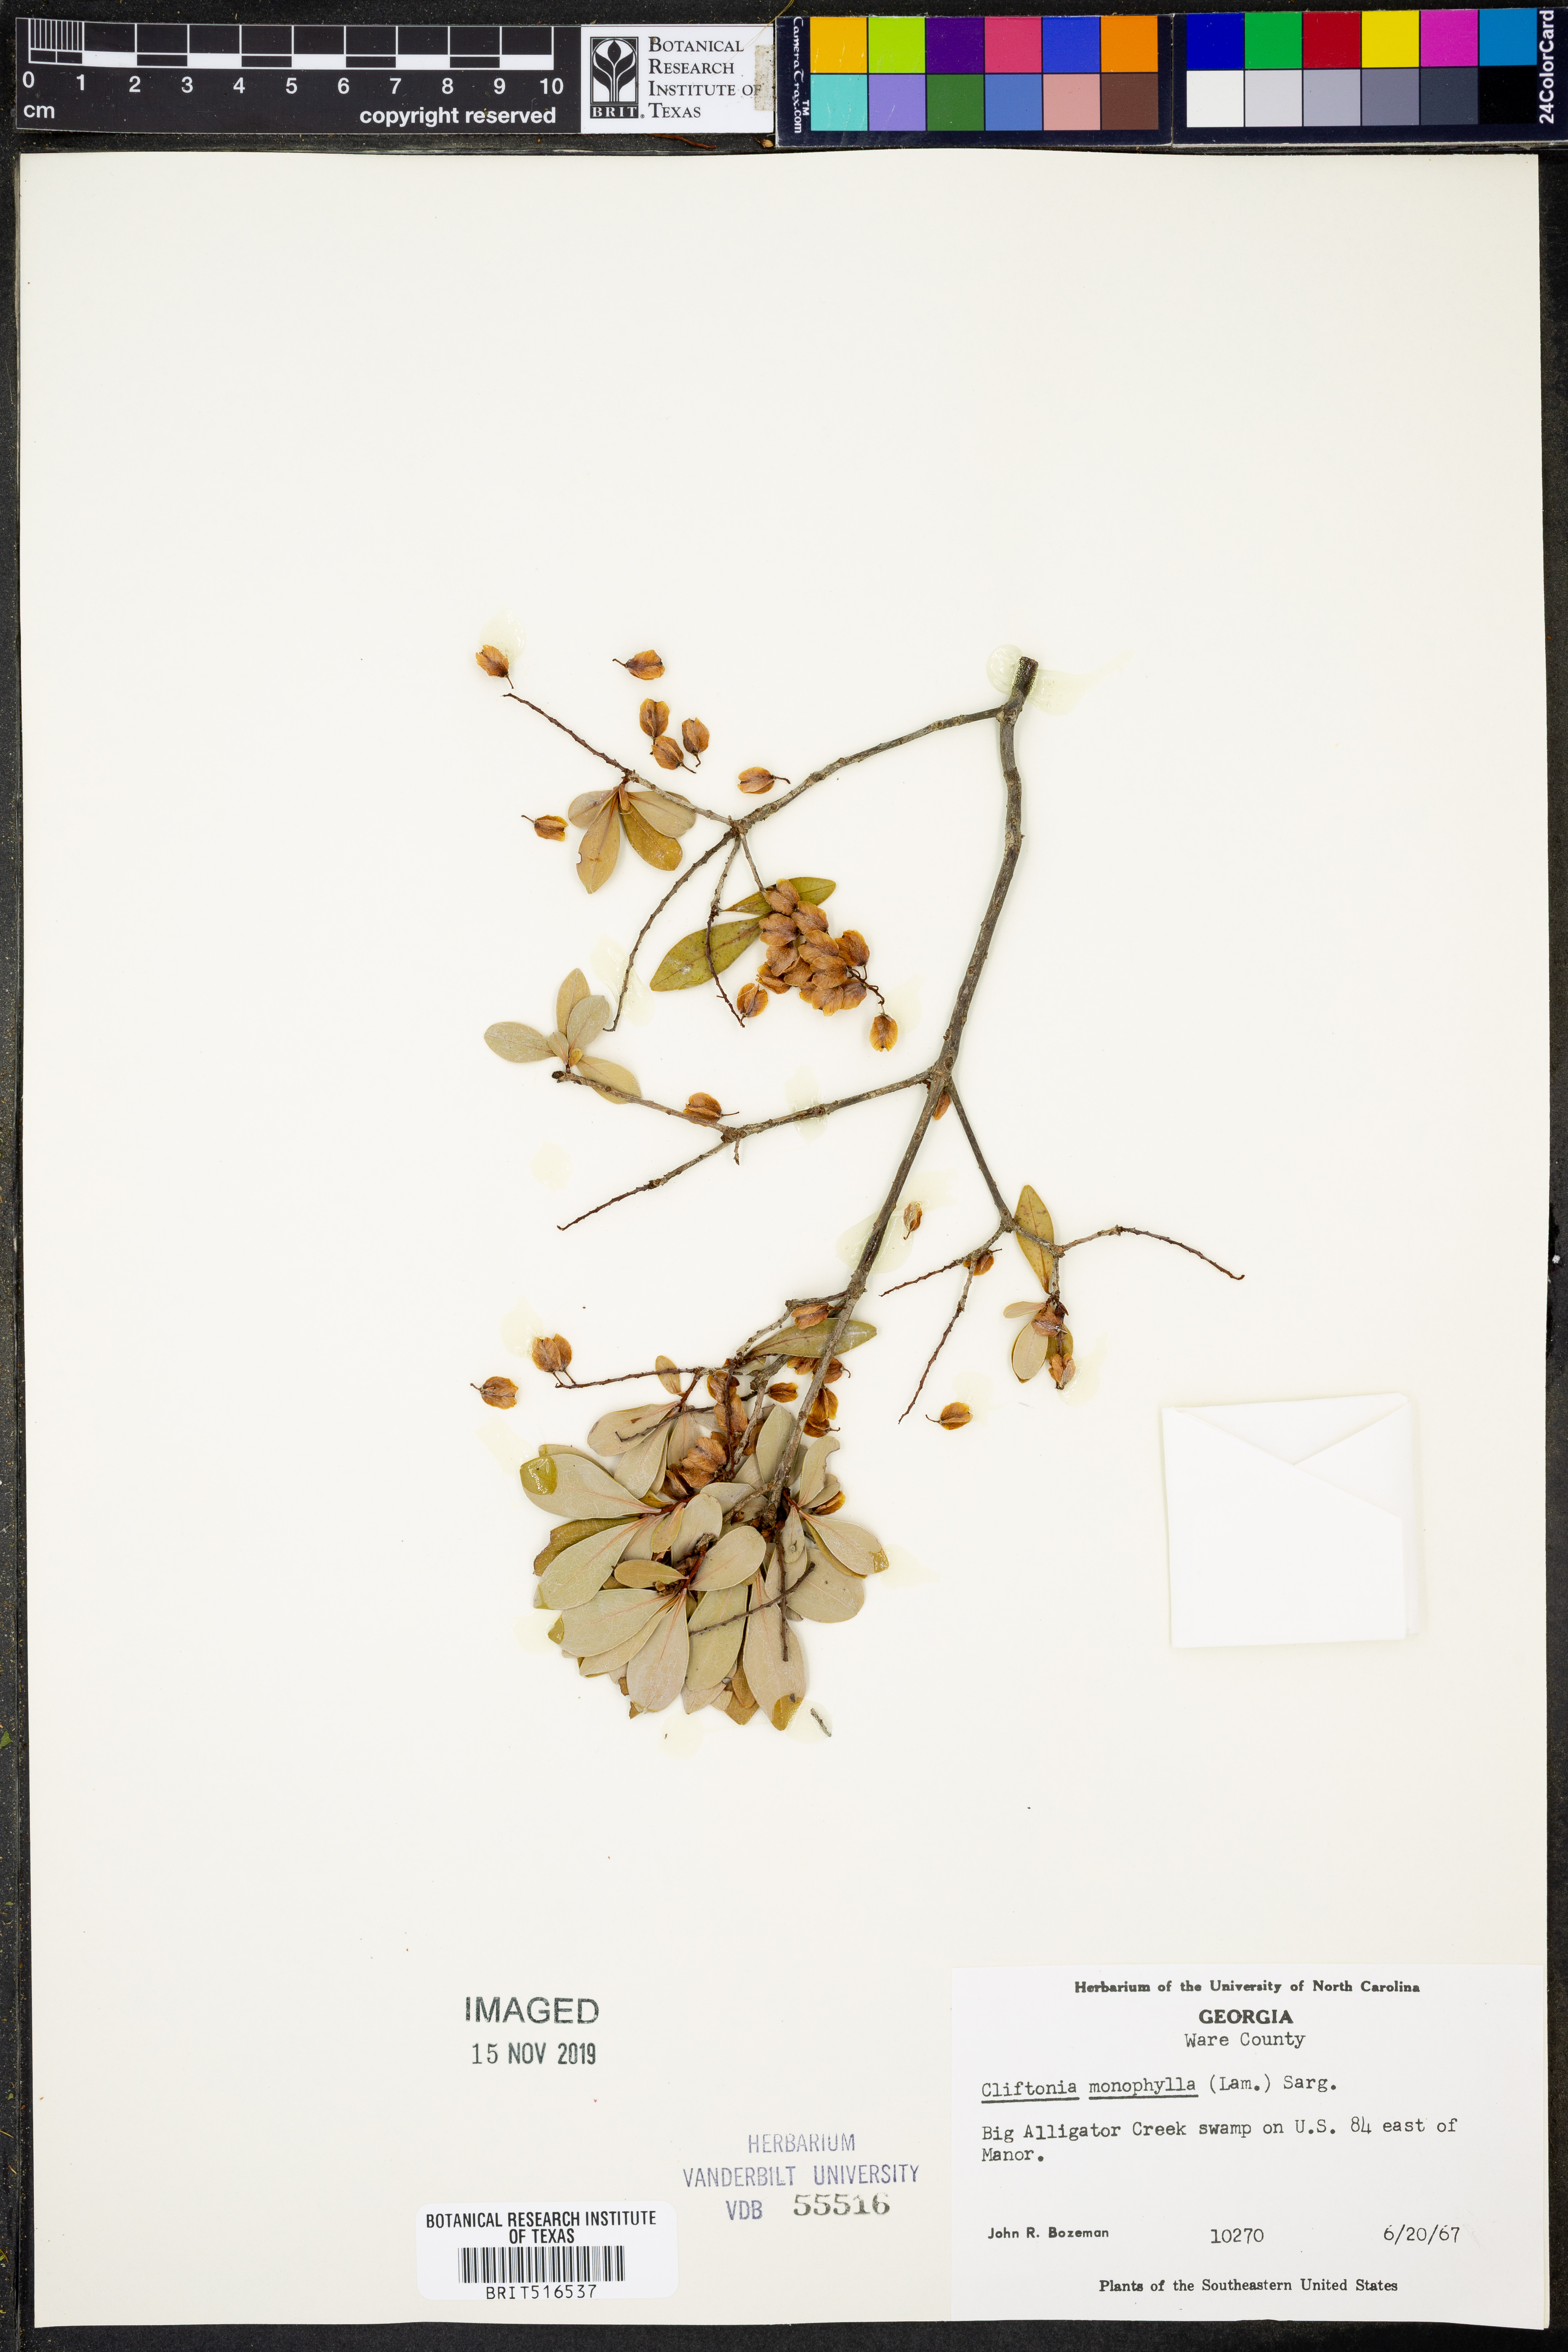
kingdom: Plantae
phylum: Tracheophyta
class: Magnoliopsida
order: Ericales
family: Cyrillaceae
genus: Cliftonia
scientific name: Cliftonia monophylla
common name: Titi
